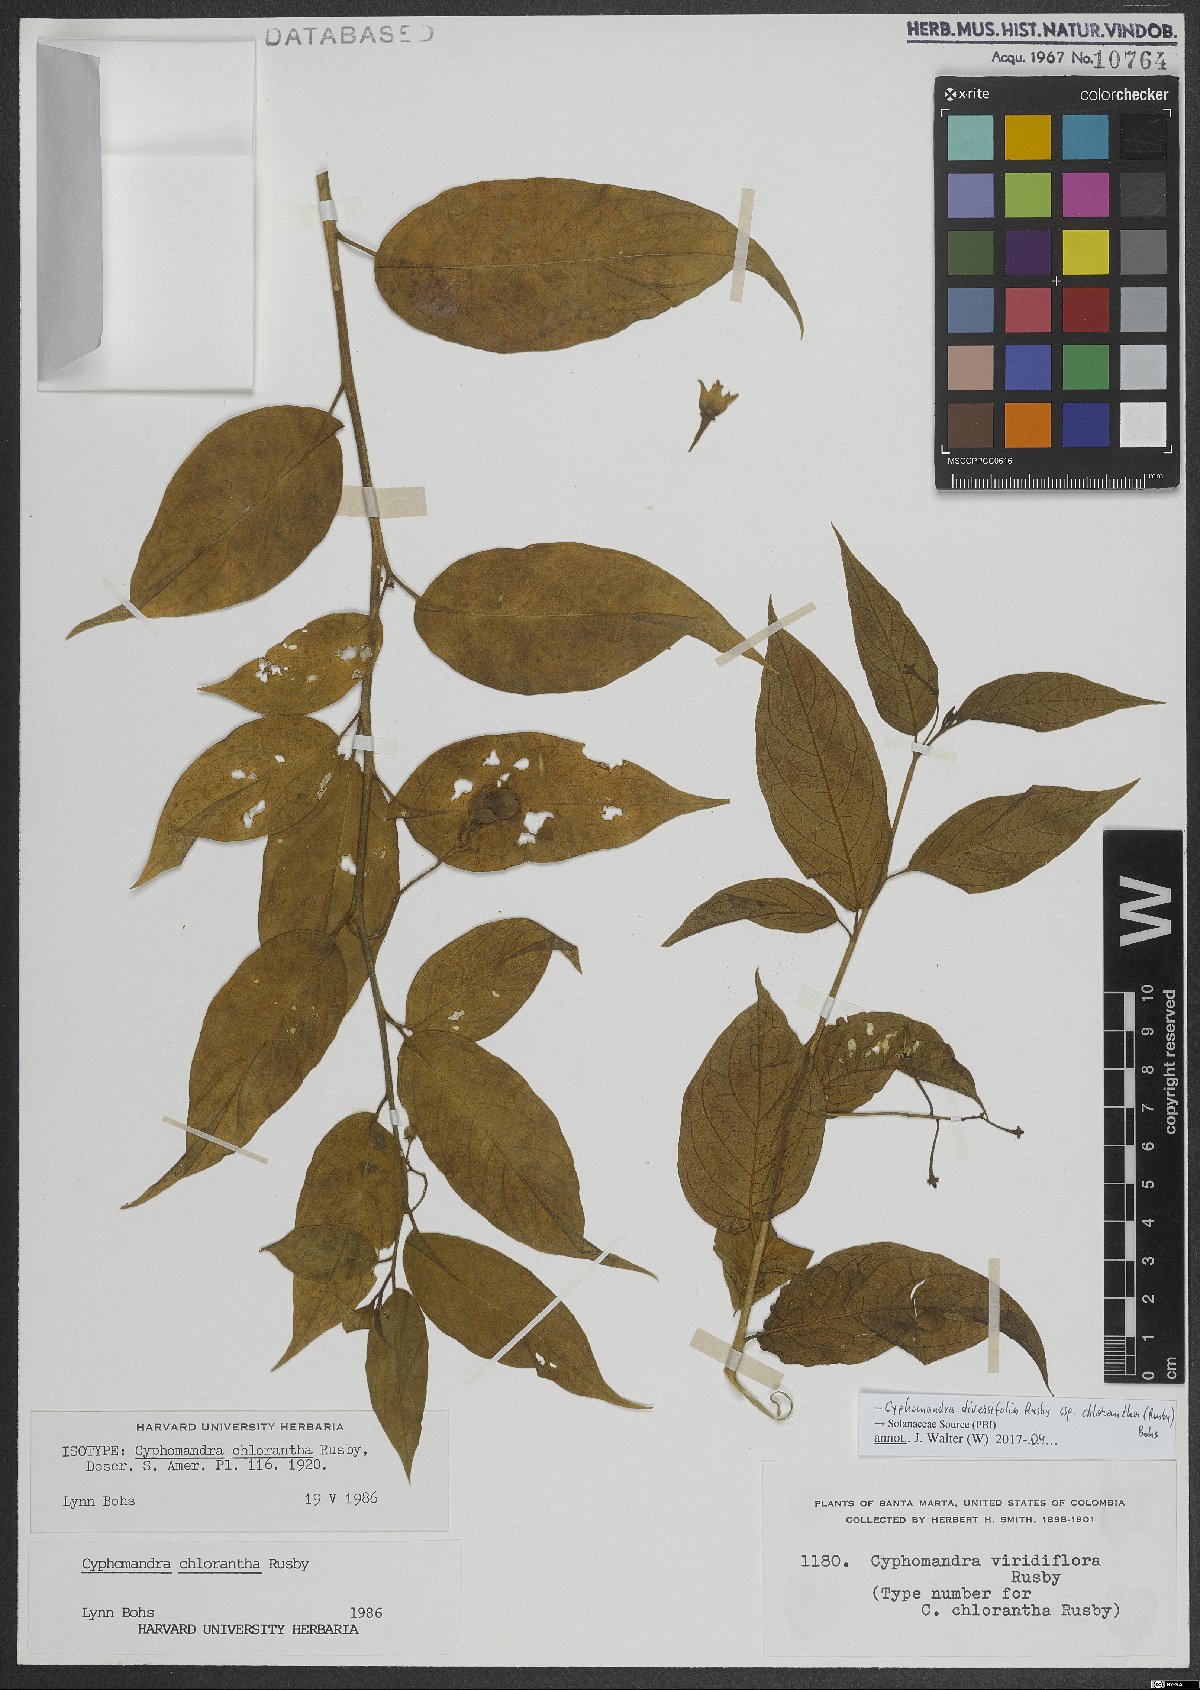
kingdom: Plantae
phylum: Tracheophyta
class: Magnoliopsida
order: Solanales
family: Solanaceae
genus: Solanum
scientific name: Solanum diversifolium
